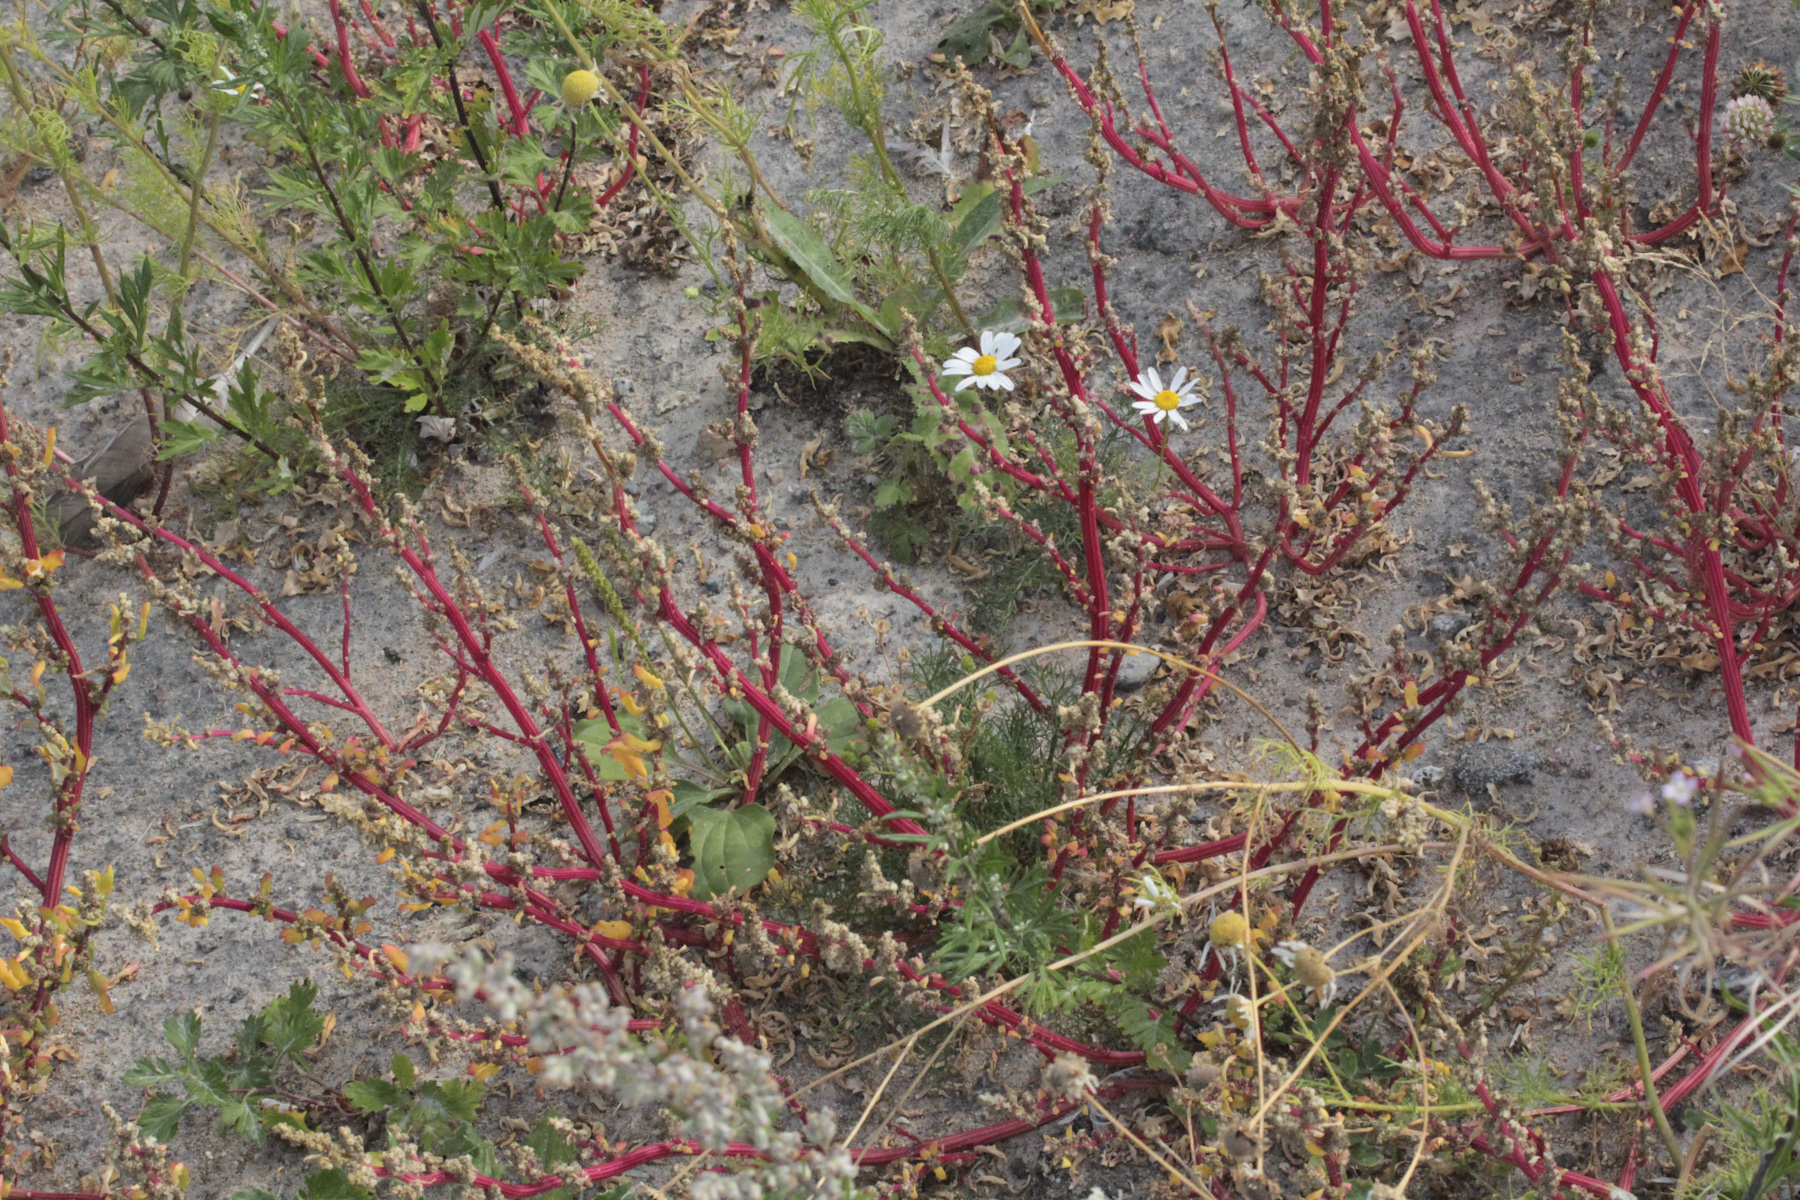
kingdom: Plantae
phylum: Tracheophyta
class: Magnoliopsida
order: Caryophyllales
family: Amaranthaceae
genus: Oxybasis
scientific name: Oxybasis glauca
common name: Glaucous goosefoot
